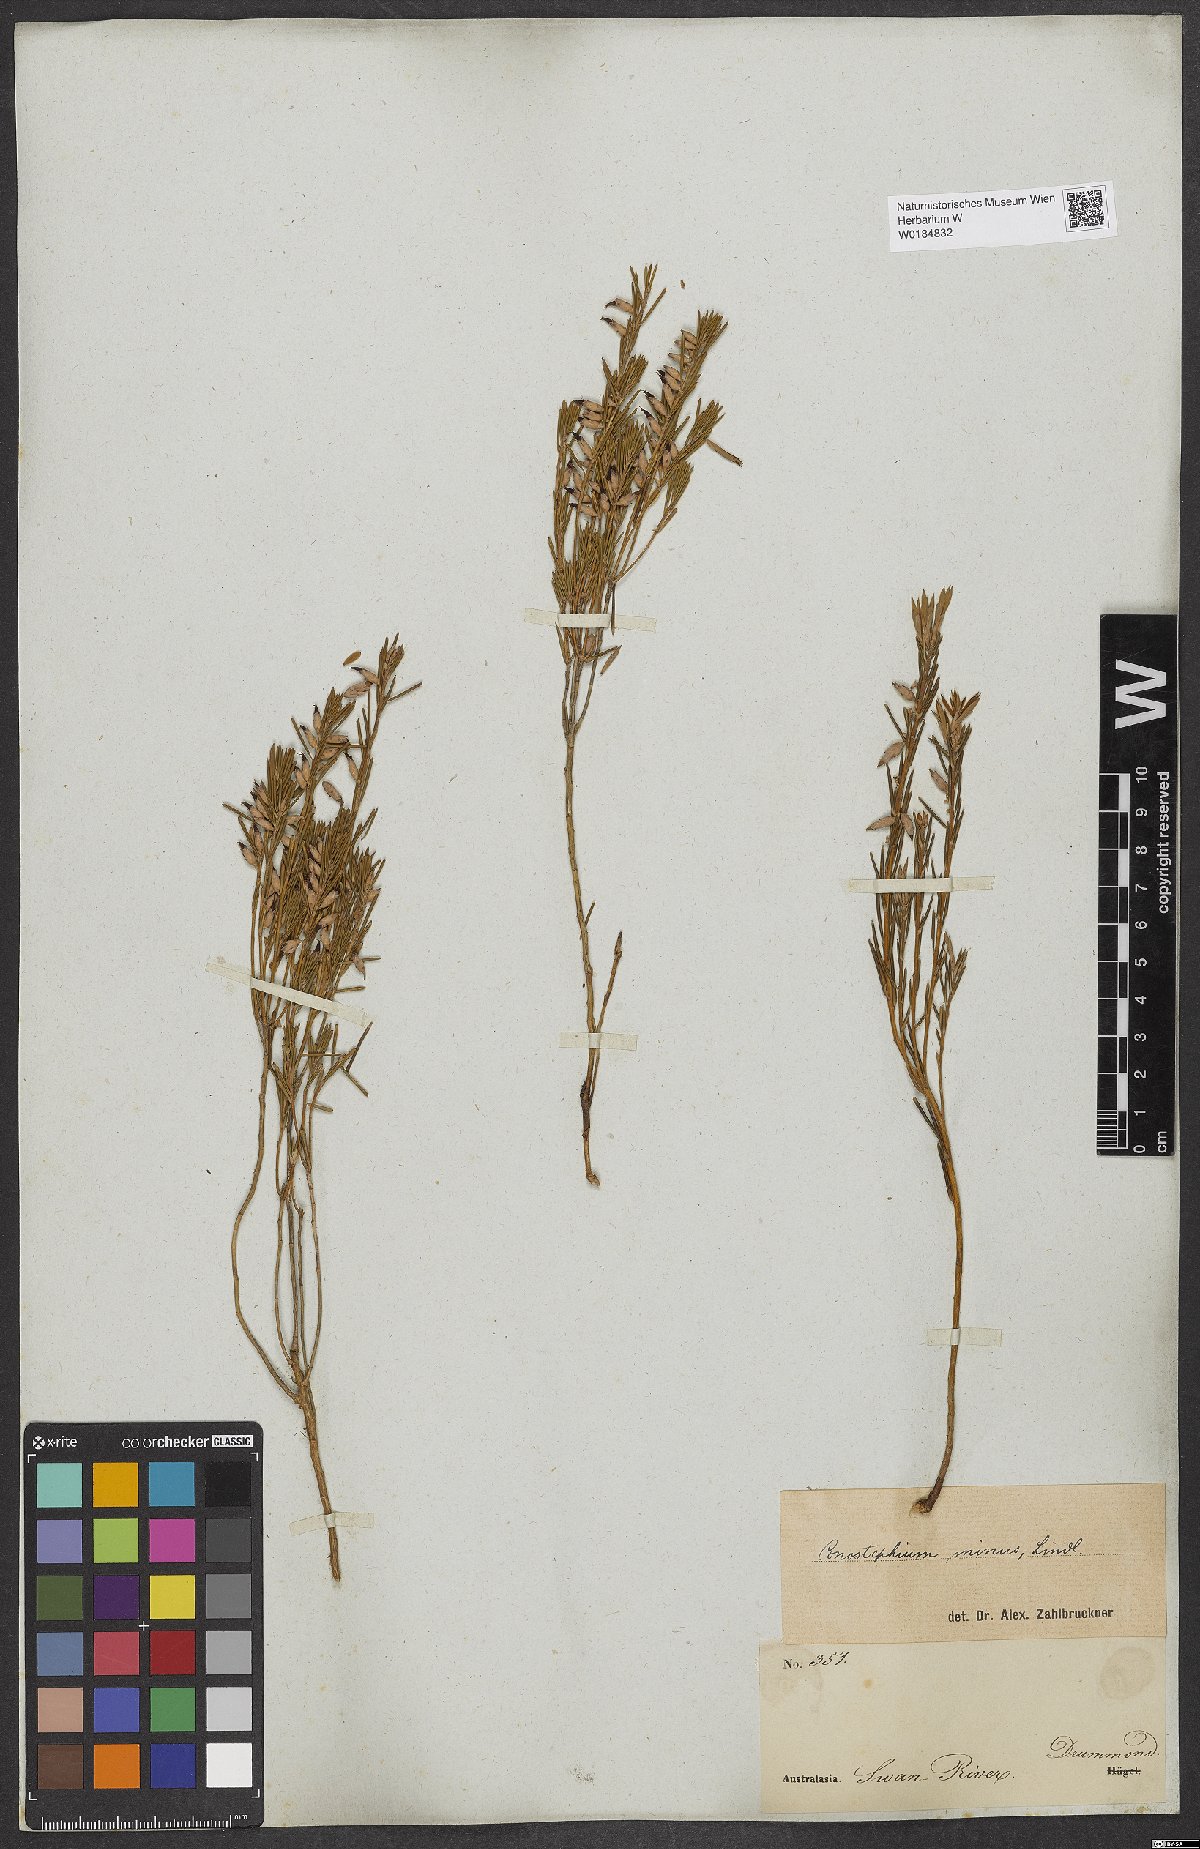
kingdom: Plantae
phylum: Tracheophyta
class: Magnoliopsida
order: Ericales
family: Ericaceae
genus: Conostephium
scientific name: Conostephium minus
